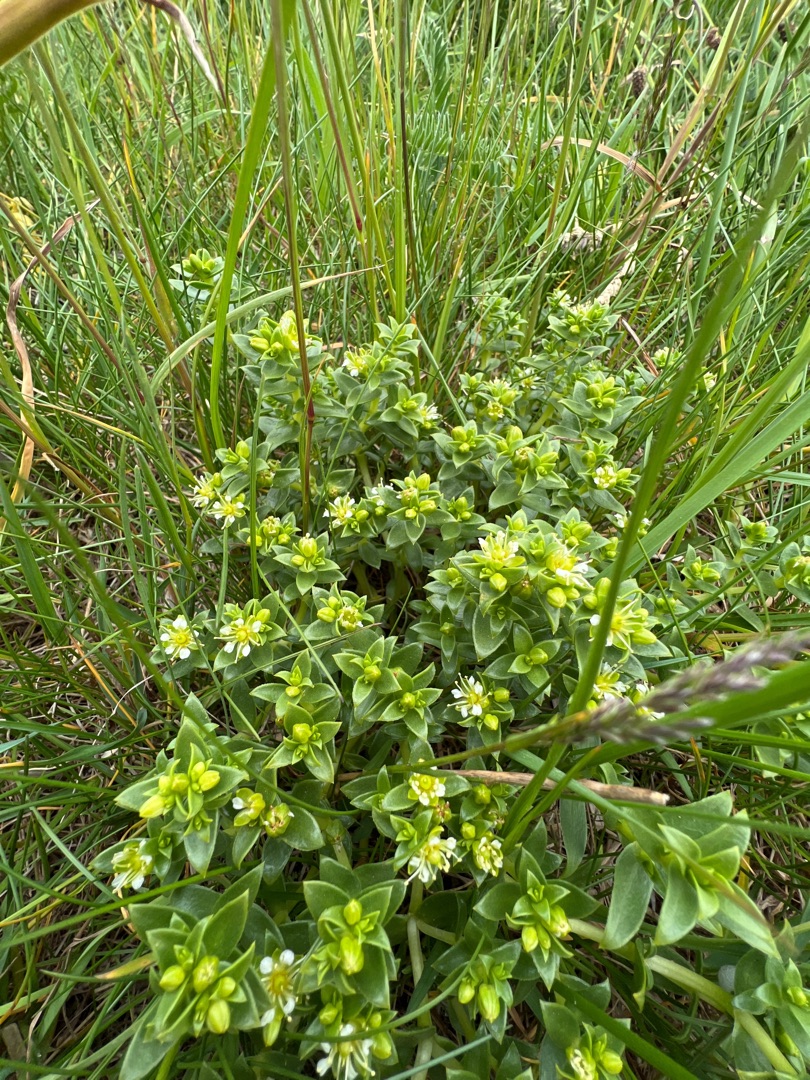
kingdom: Plantae
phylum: Tracheophyta
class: Magnoliopsida
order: Caryophyllales
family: Caryophyllaceae
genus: Honckenya
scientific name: Honckenya peploides
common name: Strandarve
